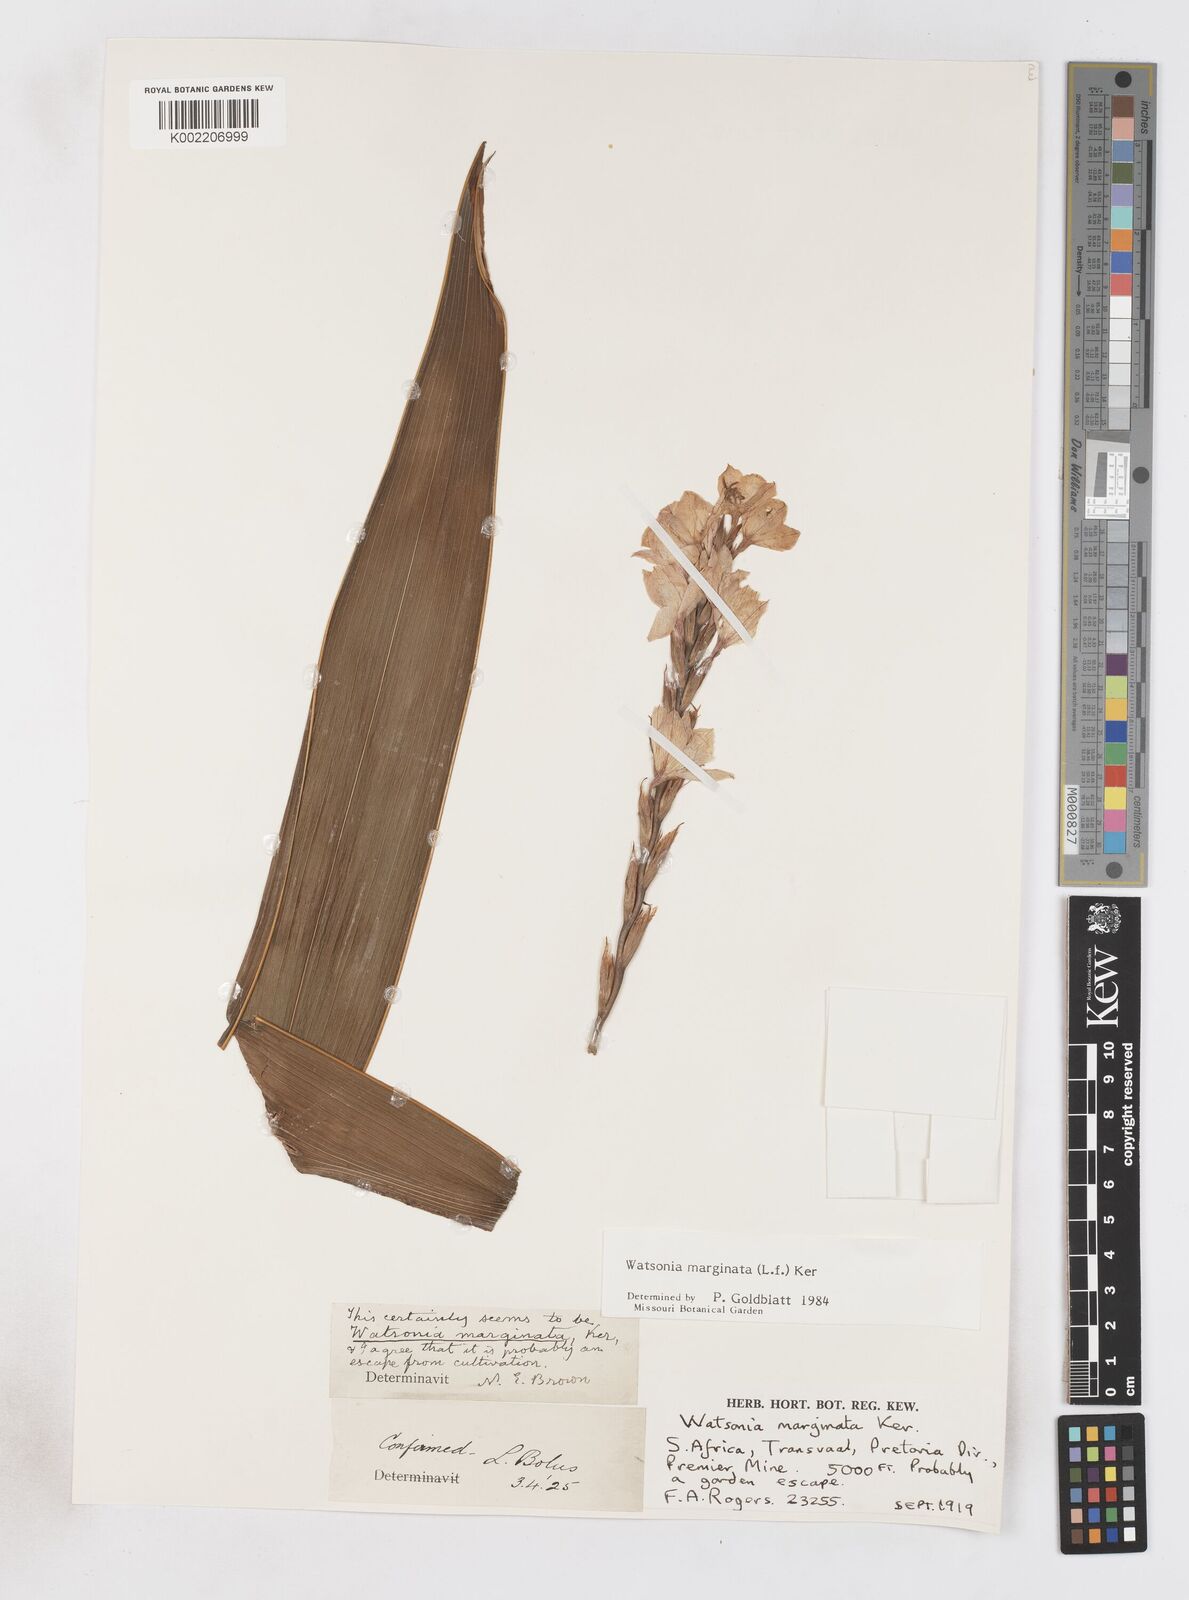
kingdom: Plantae
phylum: Tracheophyta
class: Liliopsida
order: Asparagales
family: Iridaceae
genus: Watsonia
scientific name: Watsonia marginata
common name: Fragrant bugle-lily
